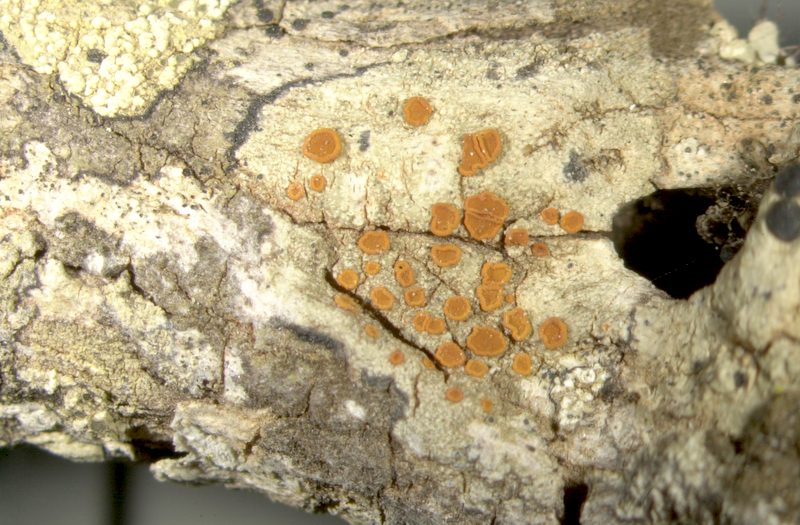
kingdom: Fungi
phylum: Ascomycota
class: Lecanoromycetes
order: Teloschistales
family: Teloschistaceae
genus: Caloplaca
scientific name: Caloplaca
